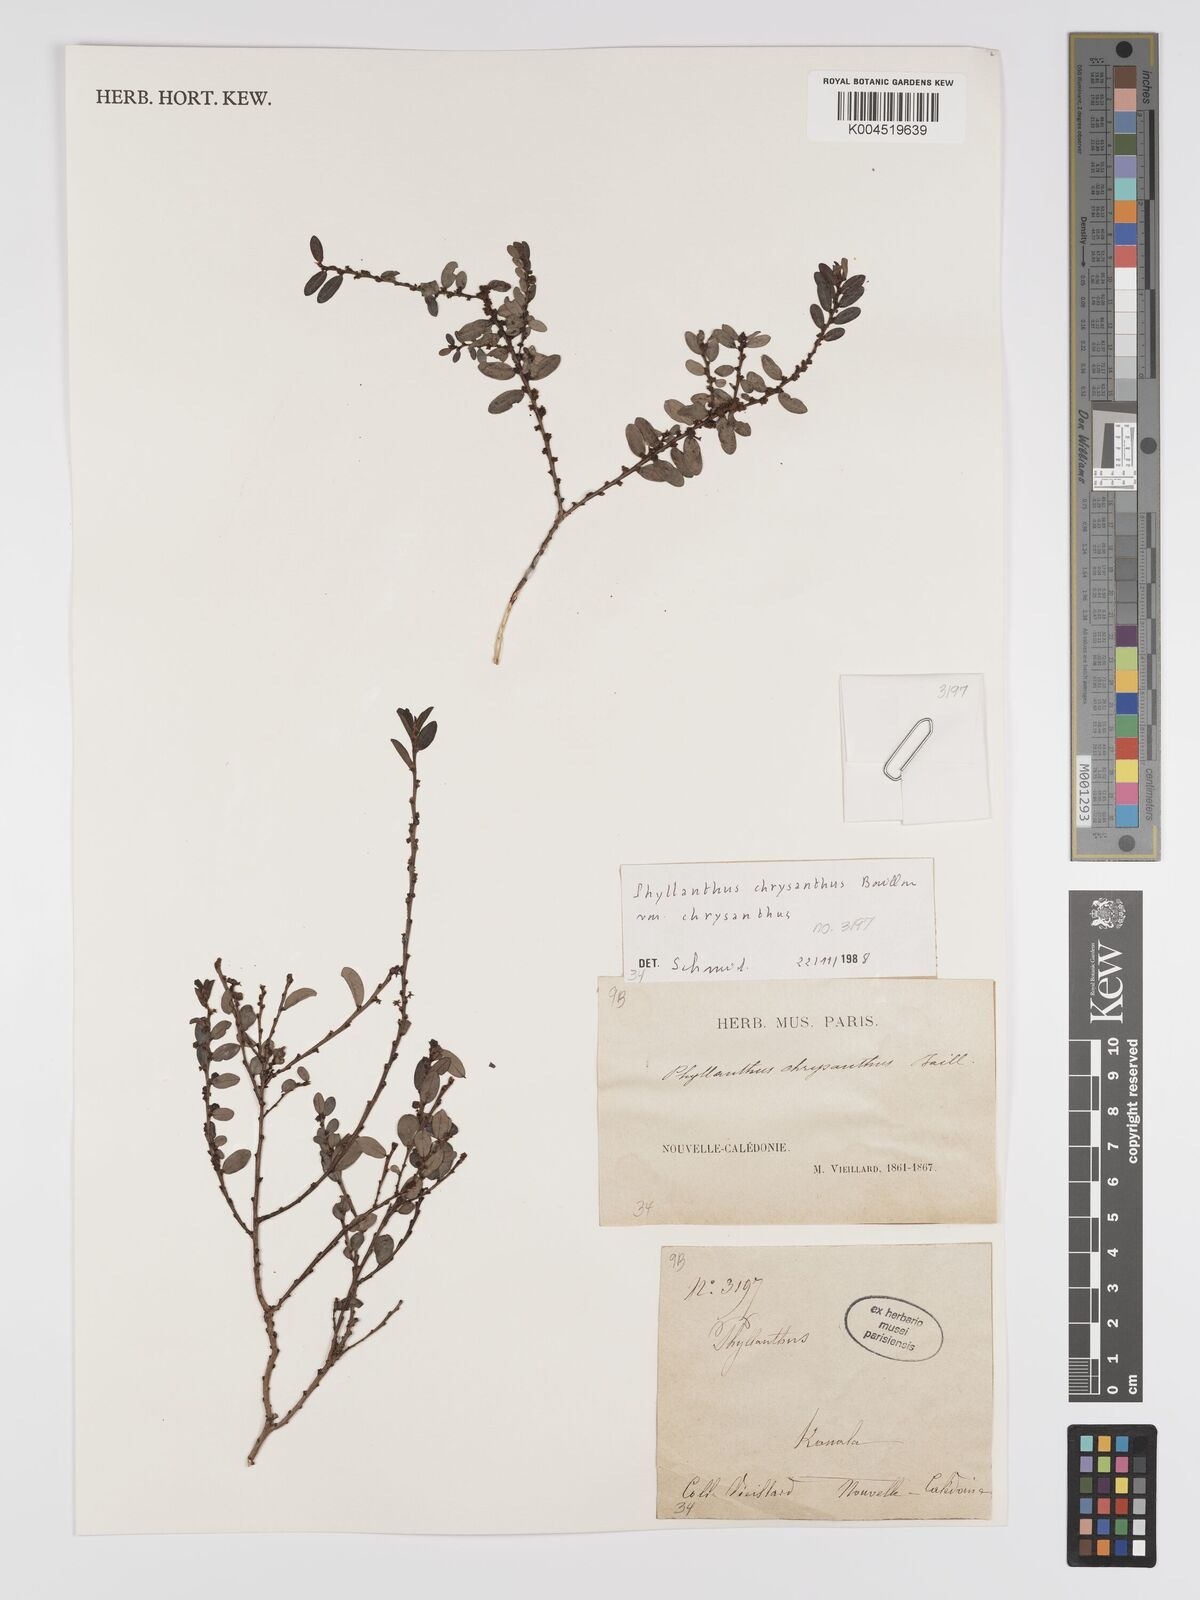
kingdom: Plantae
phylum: Tracheophyta
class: Magnoliopsida
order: Malpighiales
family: Phyllanthaceae
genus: Phyllanthus
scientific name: Phyllanthus chrysanthus
